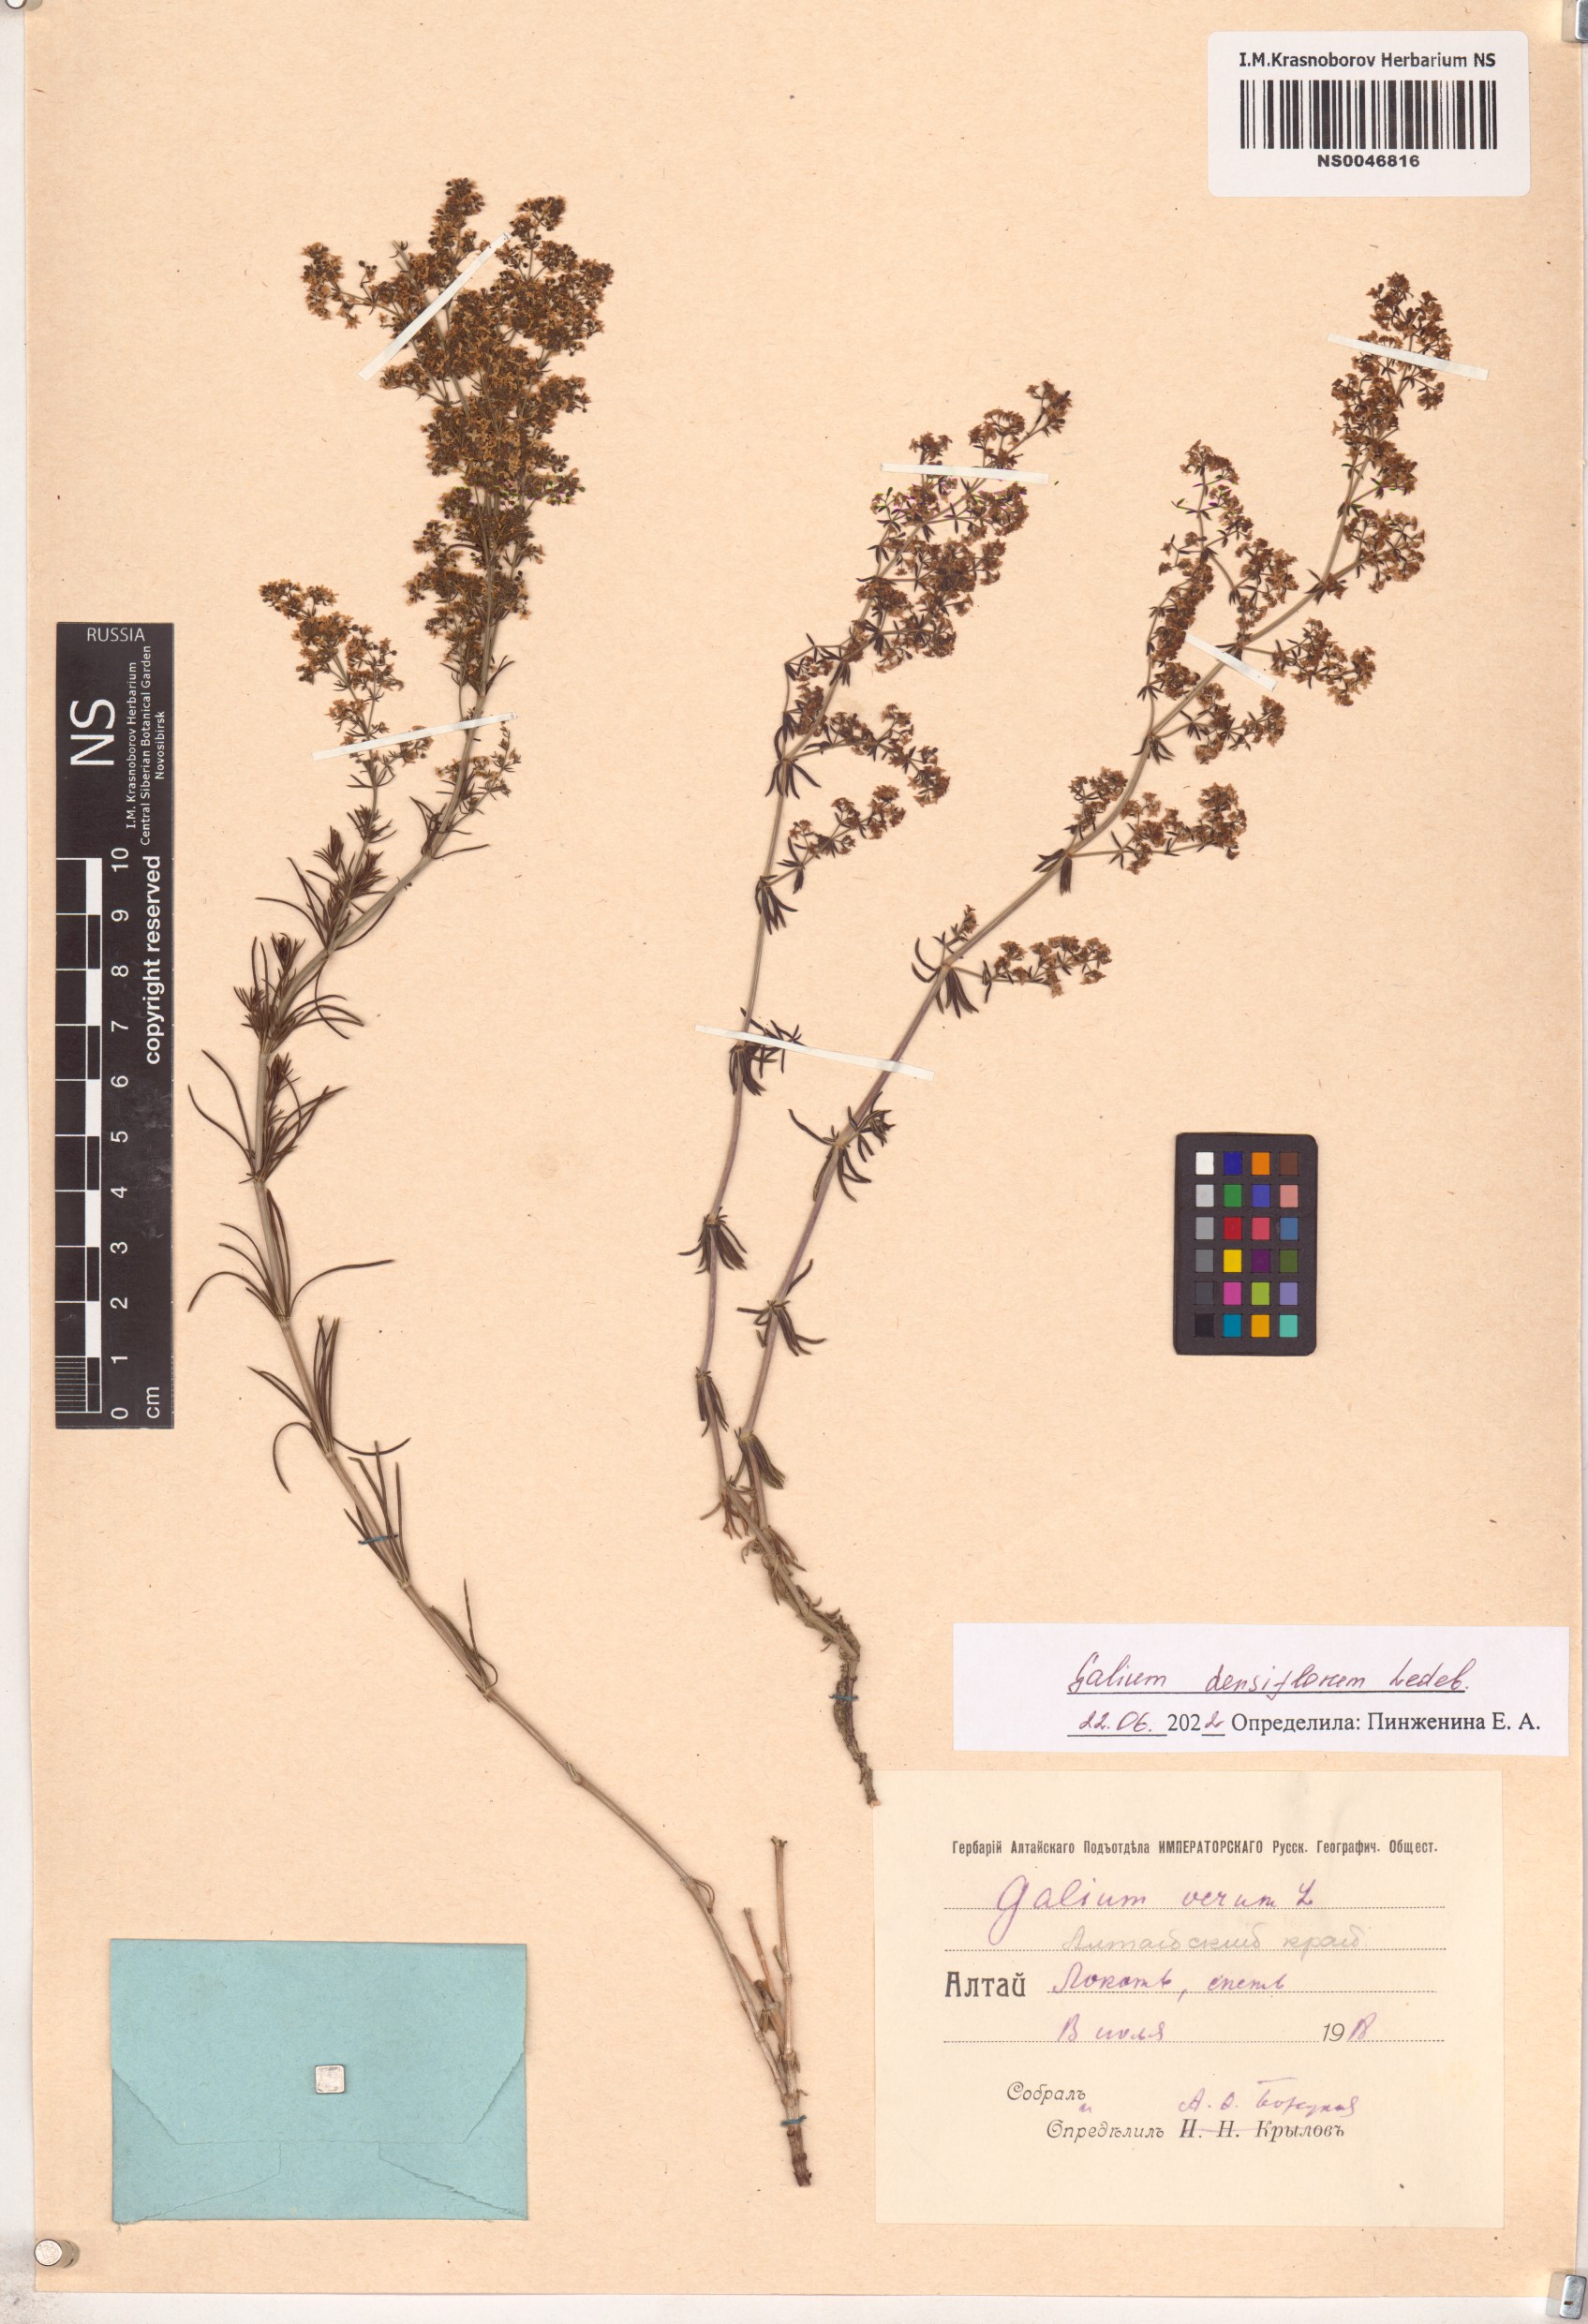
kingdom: Plantae
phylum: Tracheophyta
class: Magnoliopsida
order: Gentianales
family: Rubiaceae
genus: Galium
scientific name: Galium densiflorum
